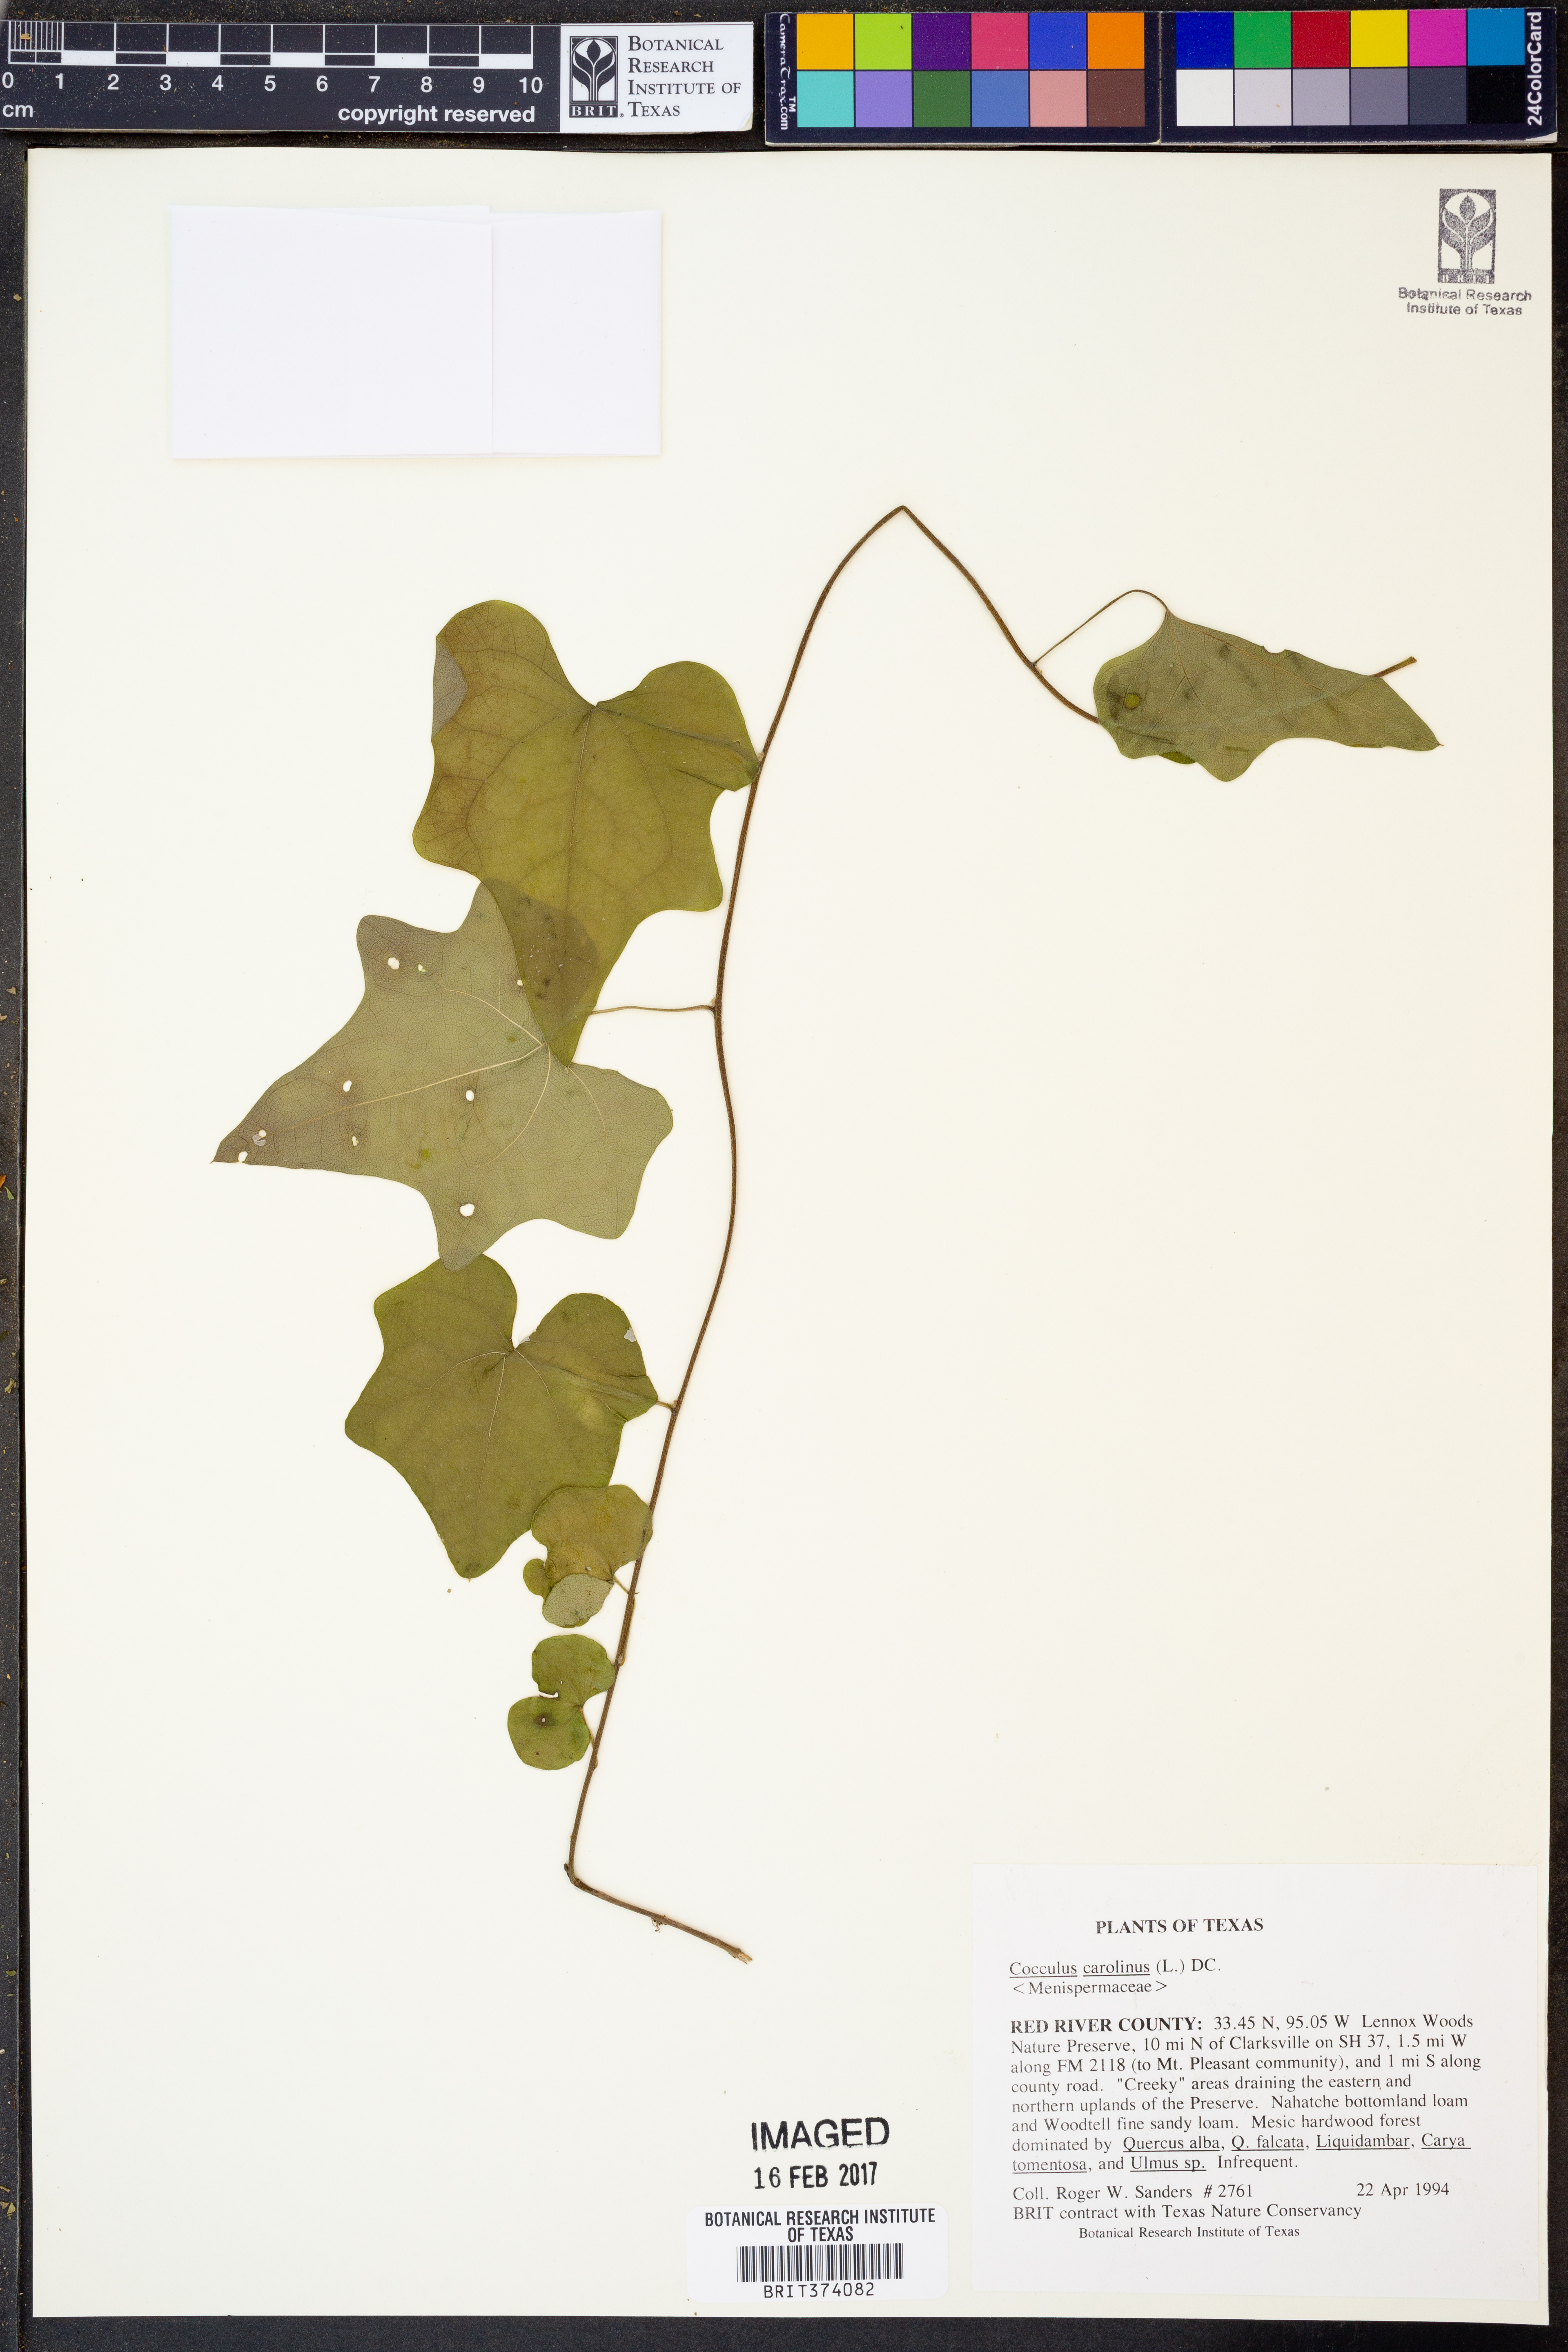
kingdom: Plantae
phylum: Tracheophyta
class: Magnoliopsida
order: Ranunculales
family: Menispermaceae
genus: Cocculus
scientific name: Cocculus carolinus
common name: Carolina moonseed
